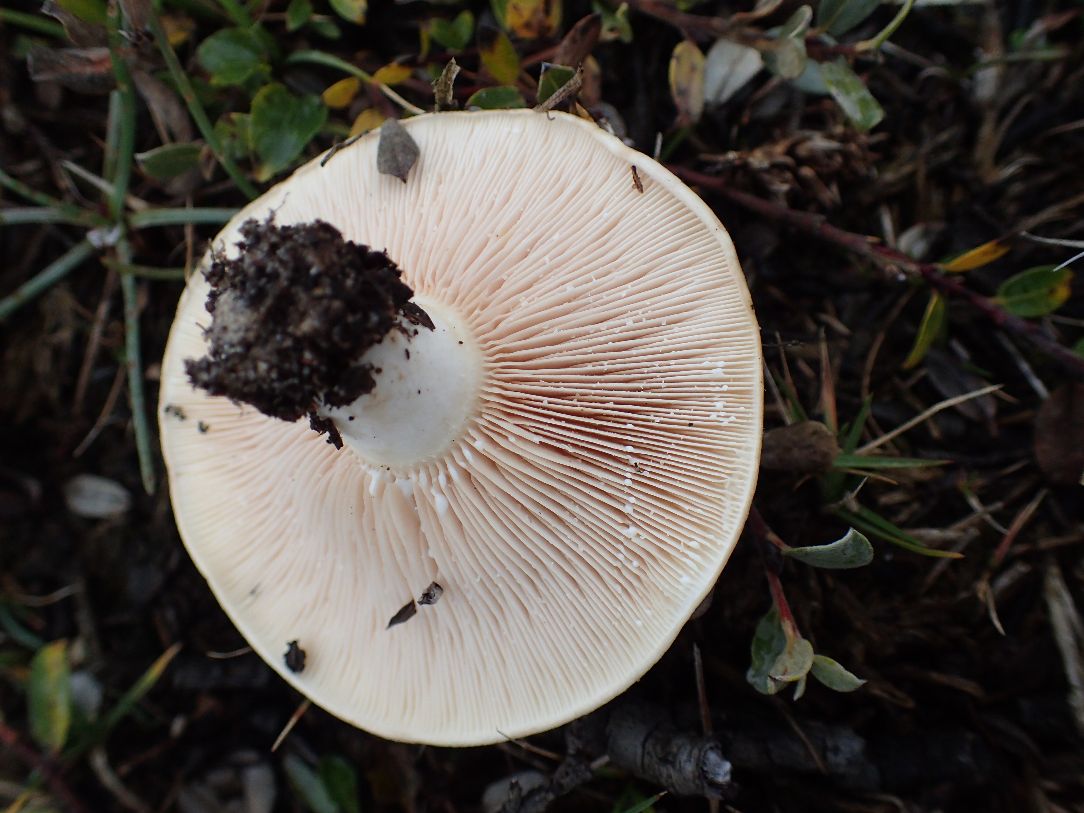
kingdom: Fungi
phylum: Basidiomycota
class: Agaricomycetes
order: Russulales
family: Russulaceae
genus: Lactarius
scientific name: Lactarius controversus
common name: rosabladet mælkehat
